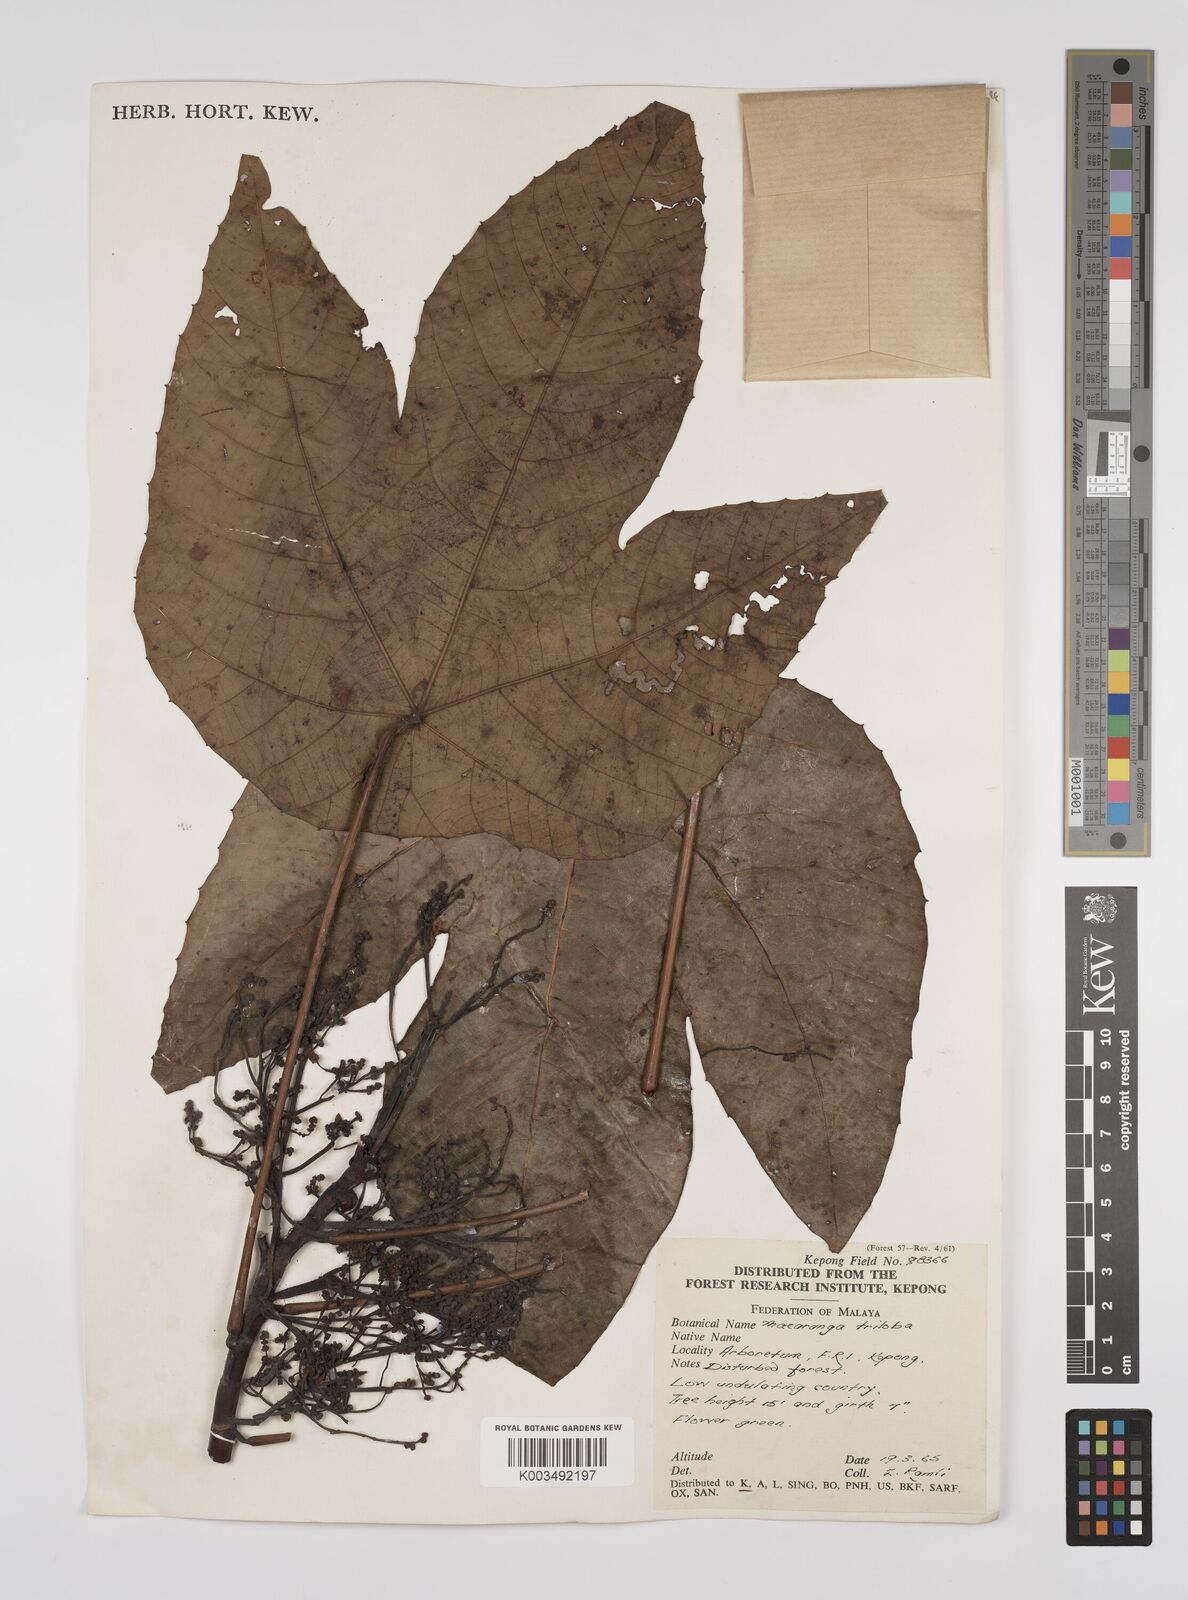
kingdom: Plantae
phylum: Tracheophyta
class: Magnoliopsida
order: Malpighiales
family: Euphorbiaceae
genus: Macaranga
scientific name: Macaranga triloba
